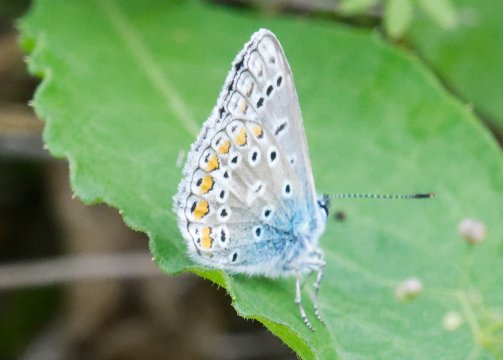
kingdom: Animalia
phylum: Arthropoda
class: Insecta
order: Lepidoptera
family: Lycaenidae
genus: Polyommatus
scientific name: Polyommatus icarus
